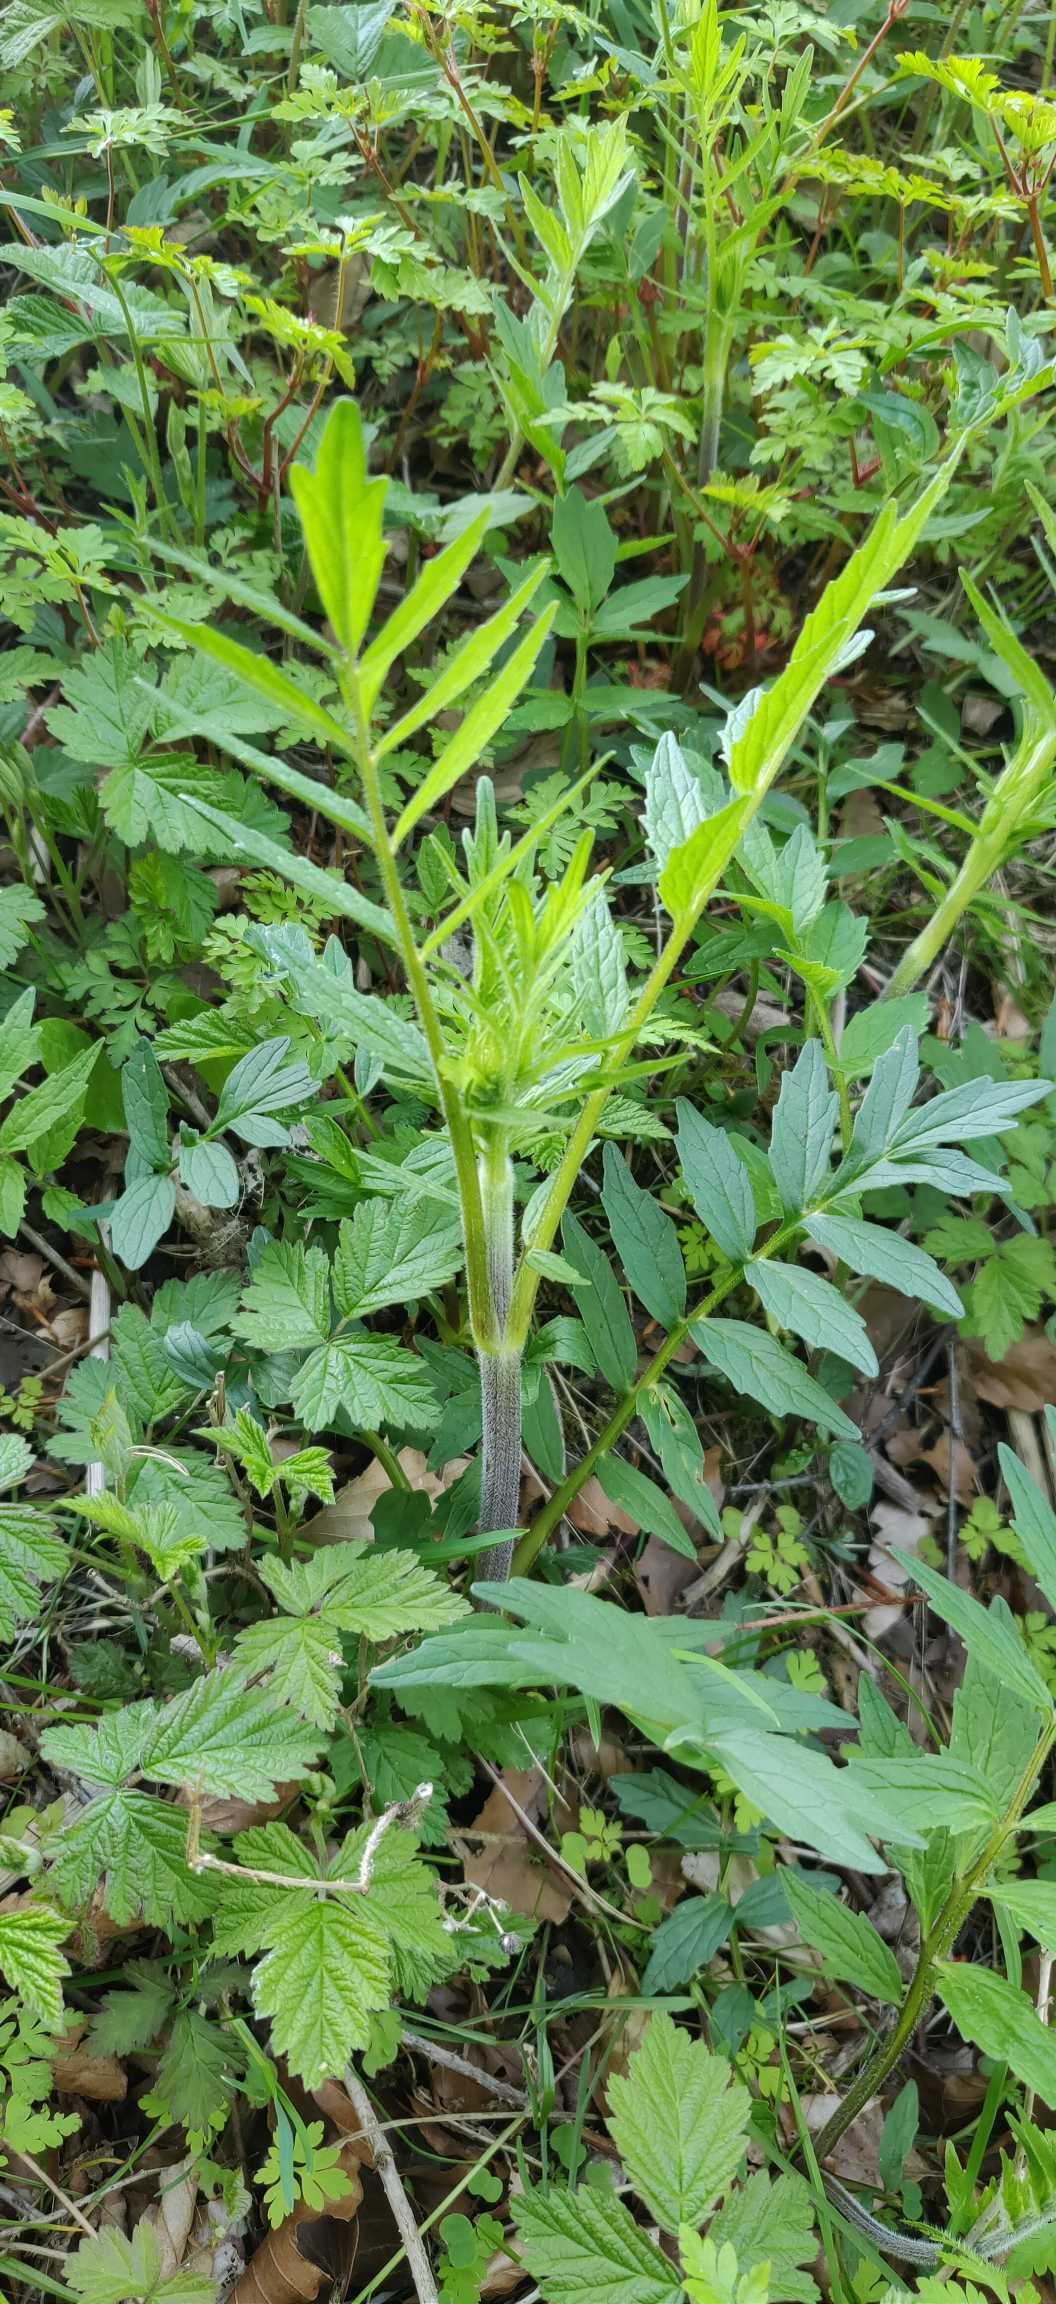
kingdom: Plantae
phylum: Tracheophyta
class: Magnoliopsida
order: Dipsacales
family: Caprifoliaceae
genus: Valeriana
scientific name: Valeriana
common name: Baldrianslægten
